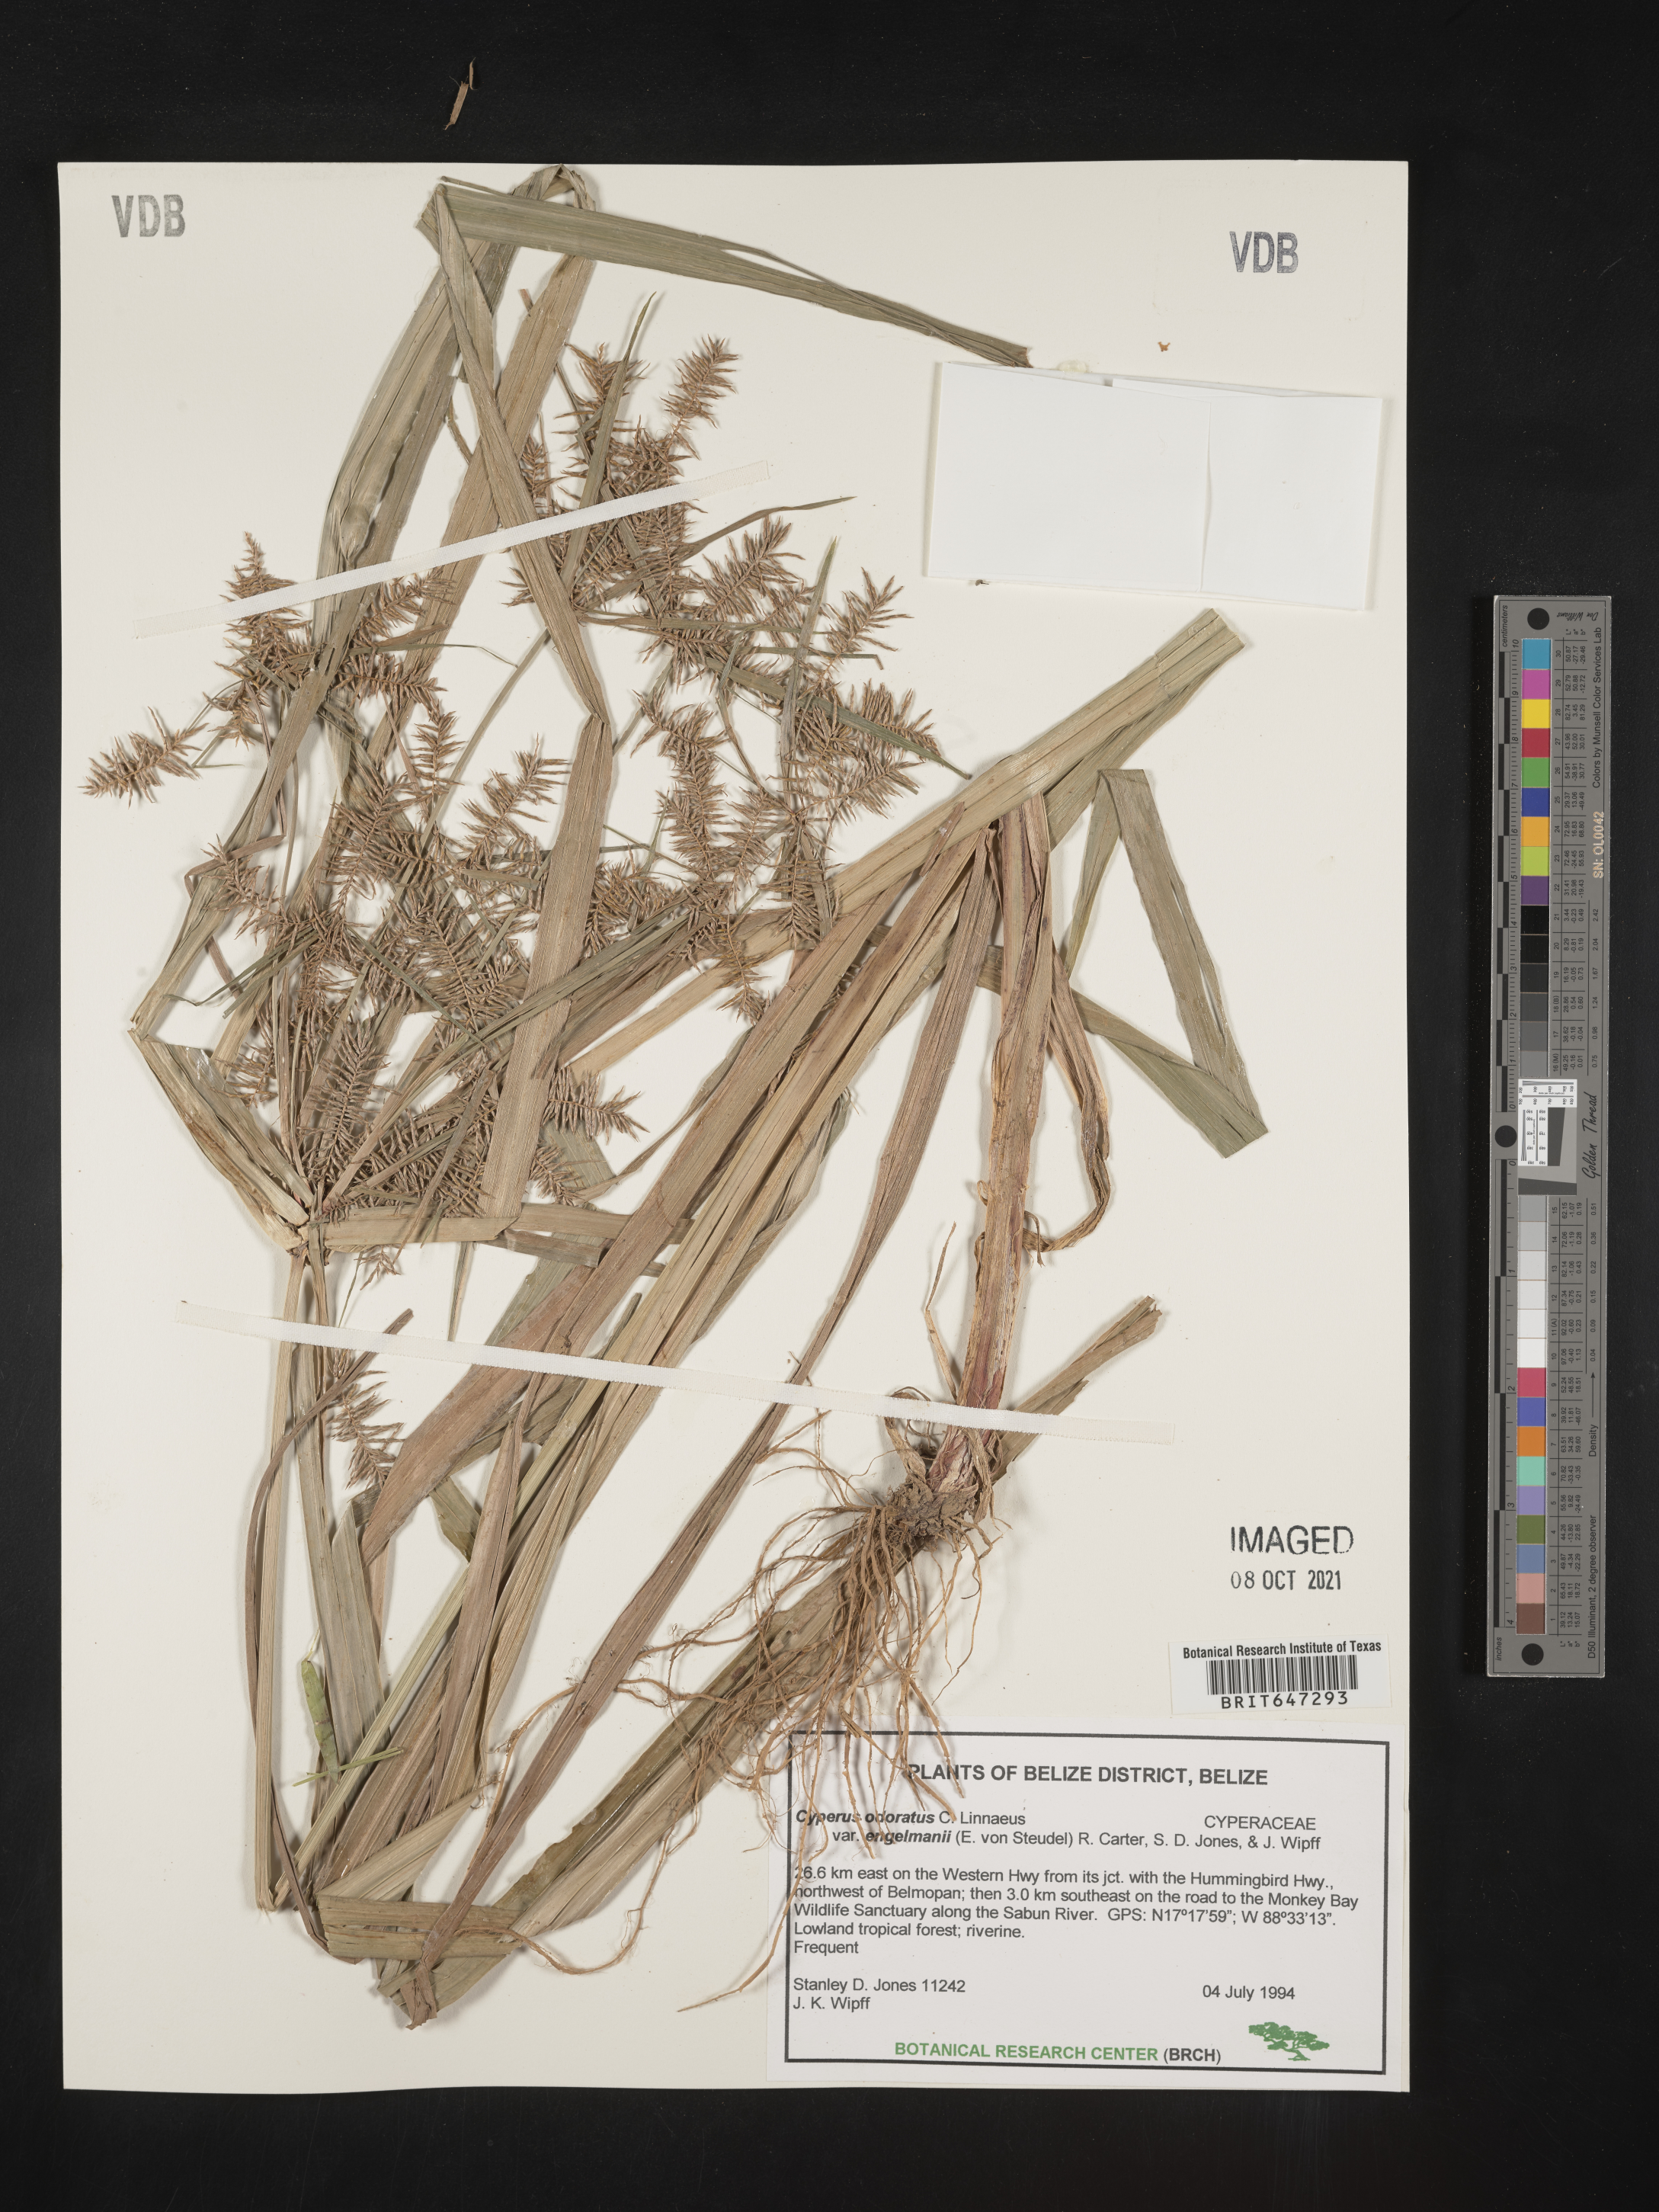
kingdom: Plantae
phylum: Tracheophyta
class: Liliopsida
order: Poales
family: Cyperaceae
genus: Cyperus
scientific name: Cyperus odoratus
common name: Fragrant flatsedge
